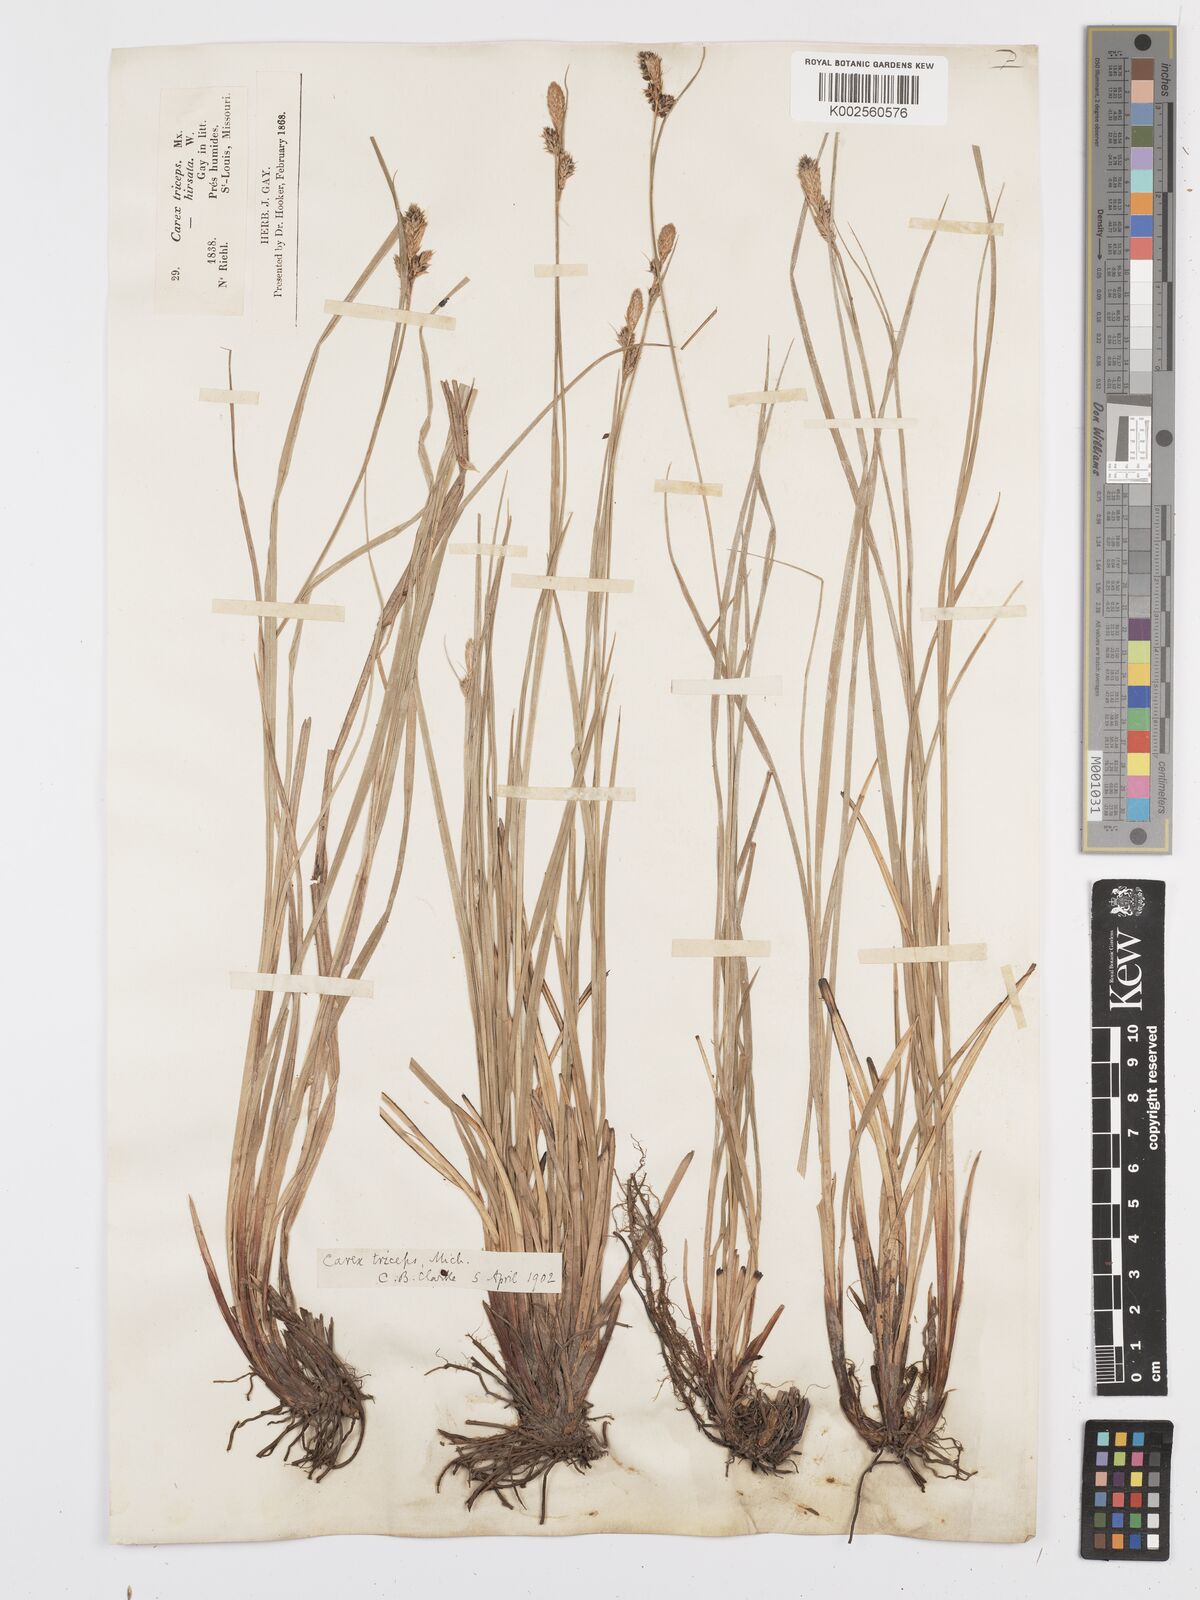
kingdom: Plantae
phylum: Tracheophyta
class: Liliopsida
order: Poales
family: Cyperaceae
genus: Carex
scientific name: Carex complanata
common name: Hirsute sedge
